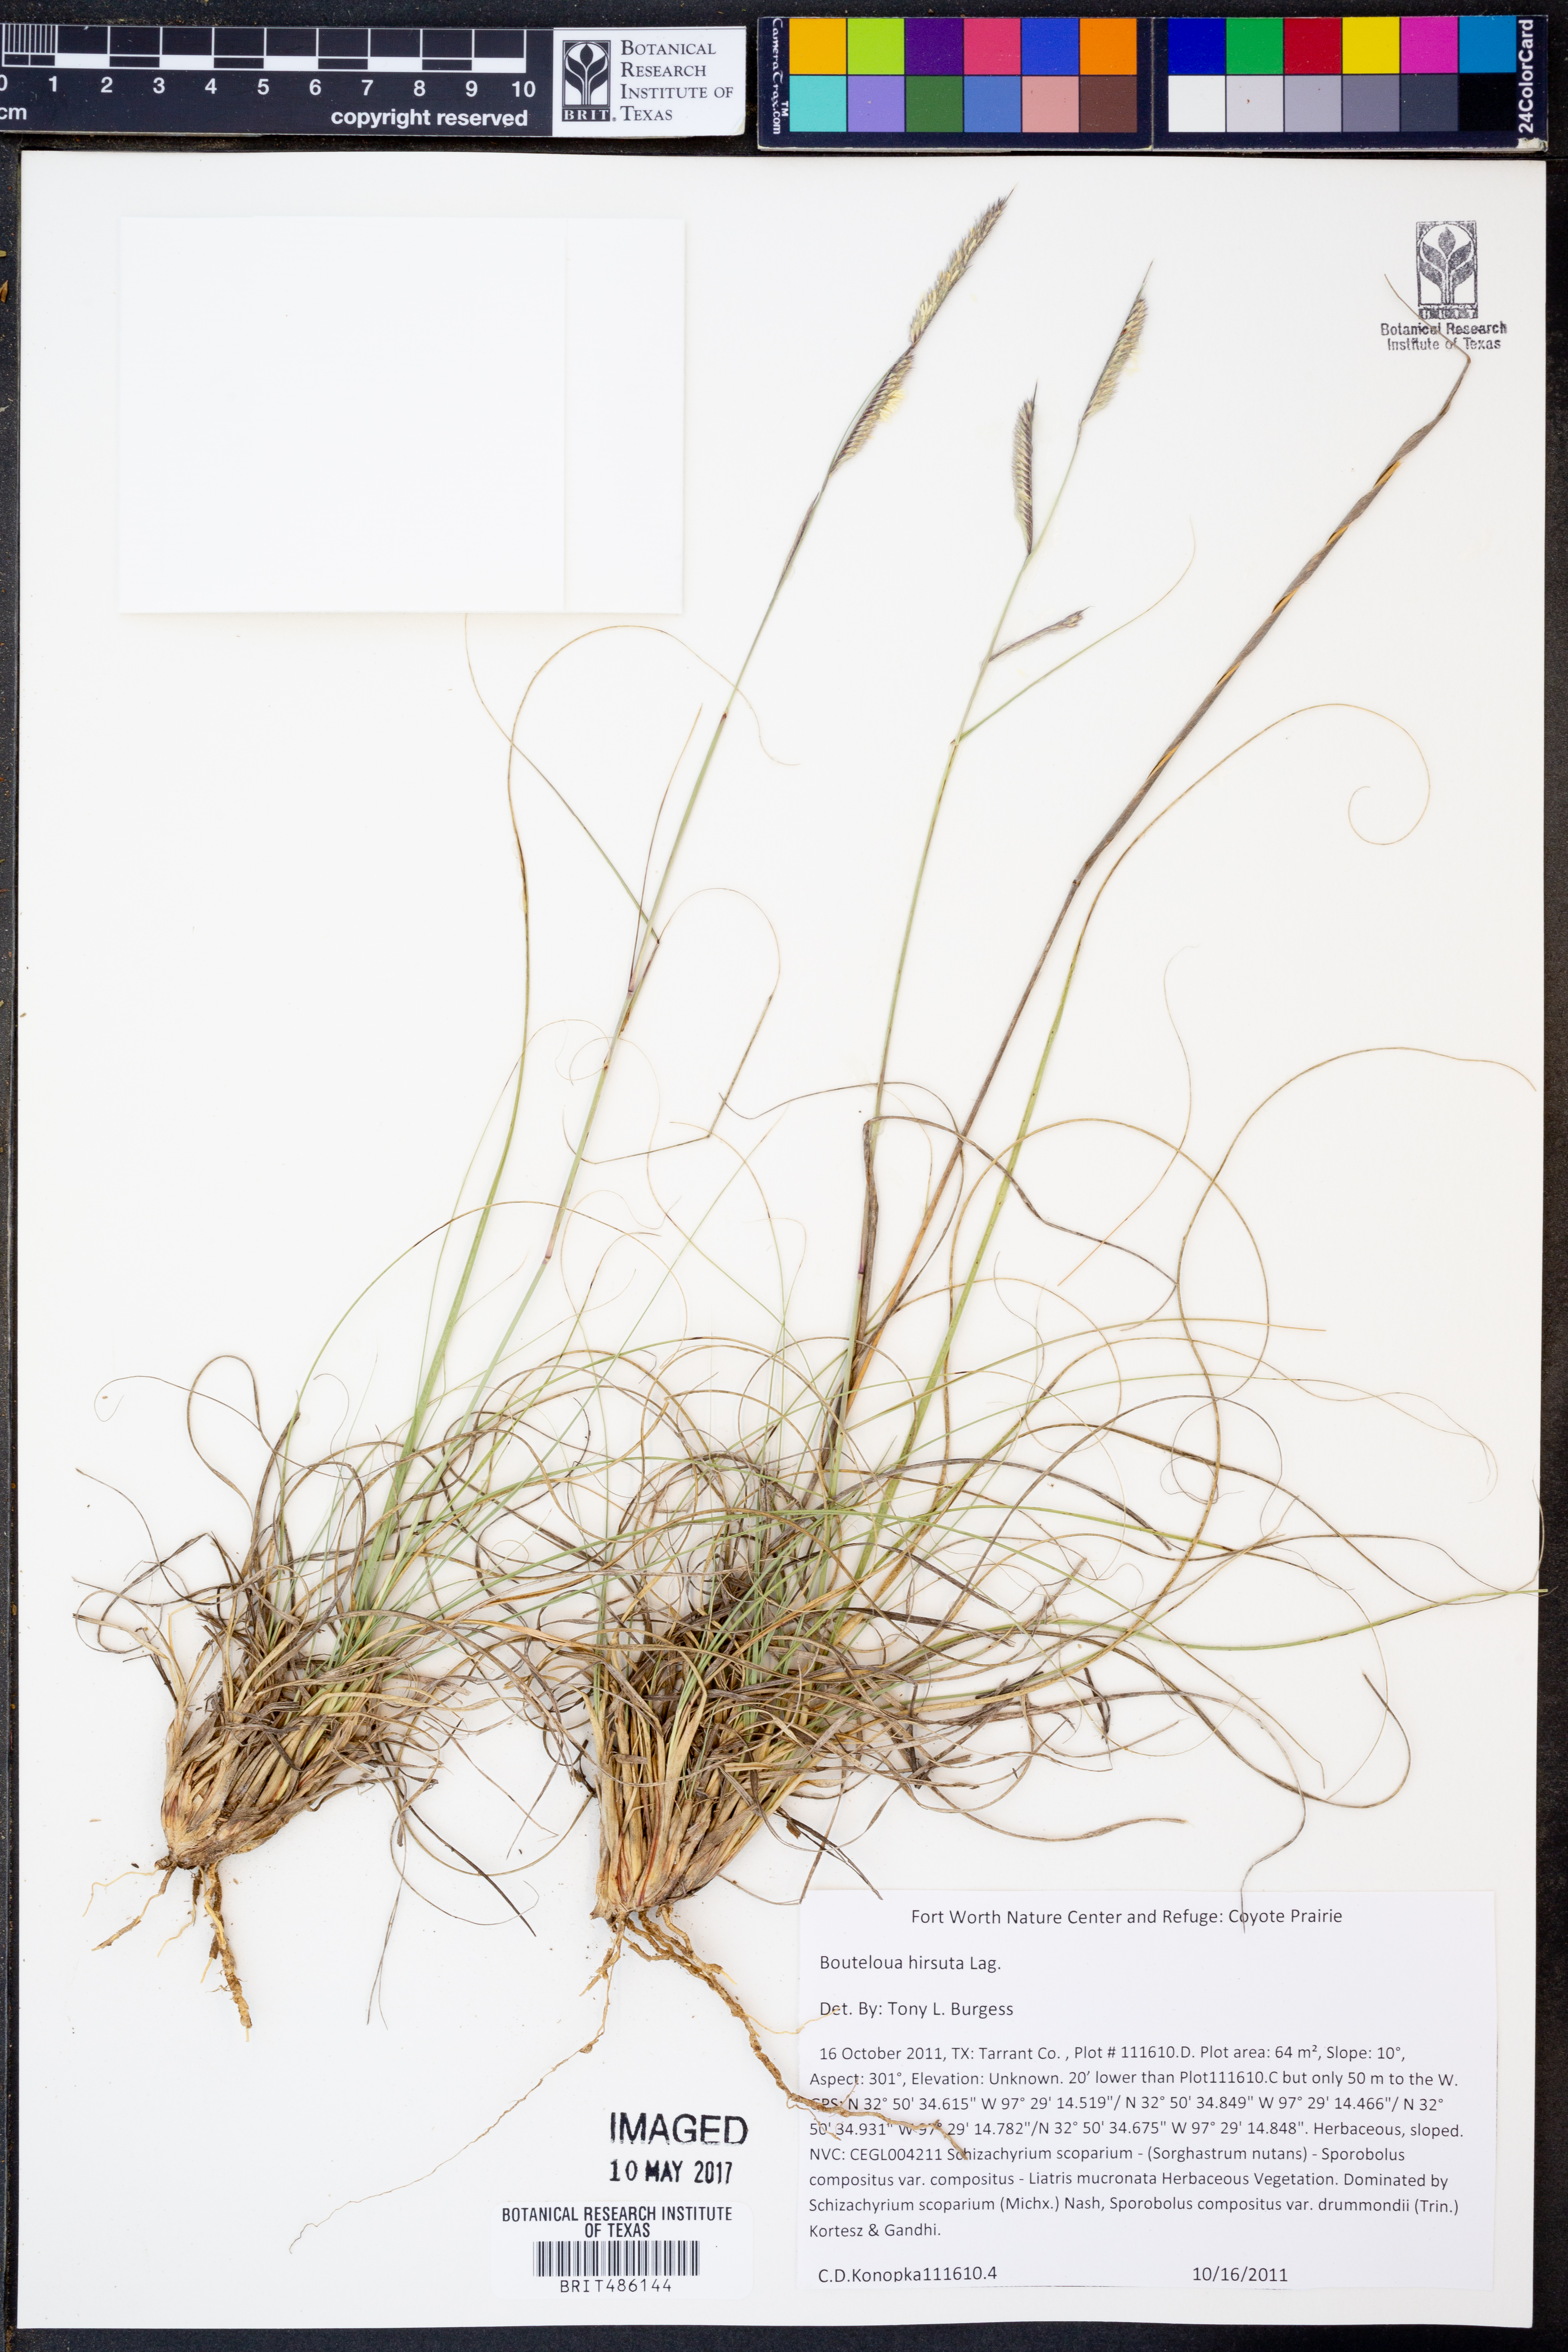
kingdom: Plantae
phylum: Tracheophyta
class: Liliopsida
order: Poales
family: Poaceae
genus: Bouteloua
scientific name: Bouteloua hirsuta
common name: Hairy grama
